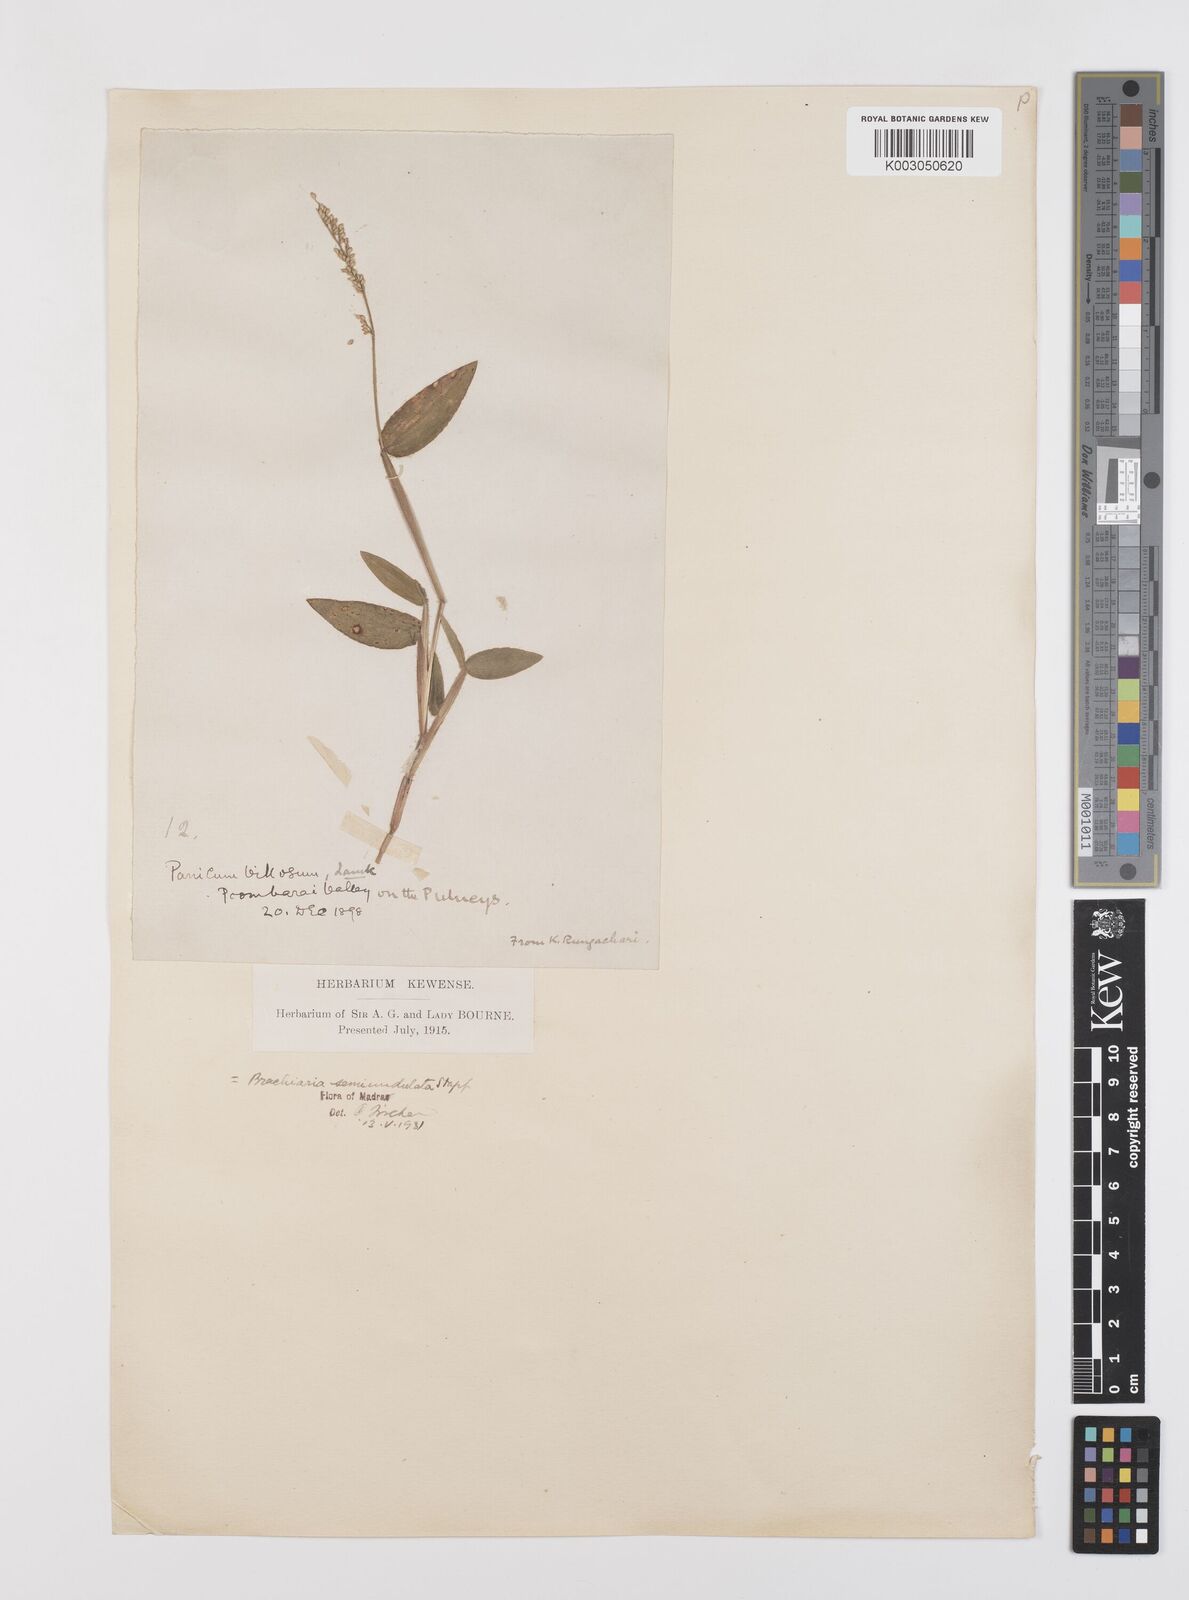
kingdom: Plantae
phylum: Tracheophyta
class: Liliopsida
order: Poales
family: Poaceae
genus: Urochloa
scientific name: Urochloa semiundulata
